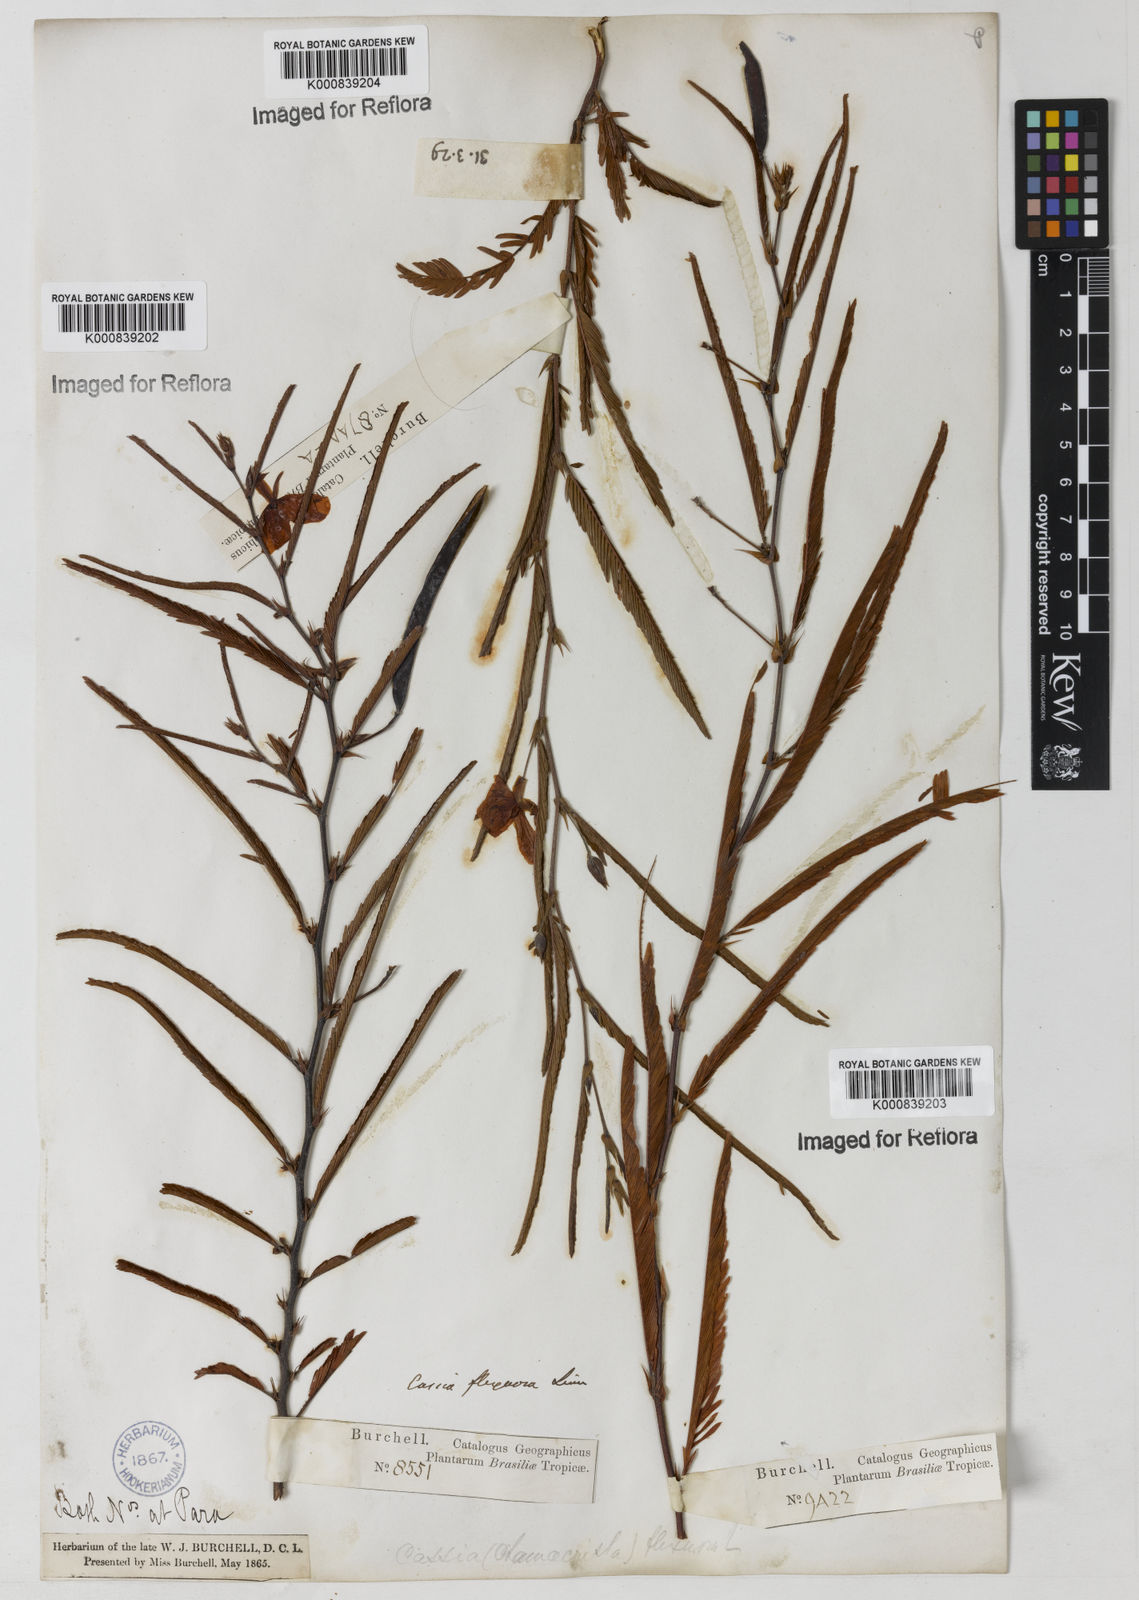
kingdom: Plantae
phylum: Tracheophyta
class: Magnoliopsida
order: Fabales
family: Fabaceae
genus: Chamaecrista
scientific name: Chamaecrista flexuosa
